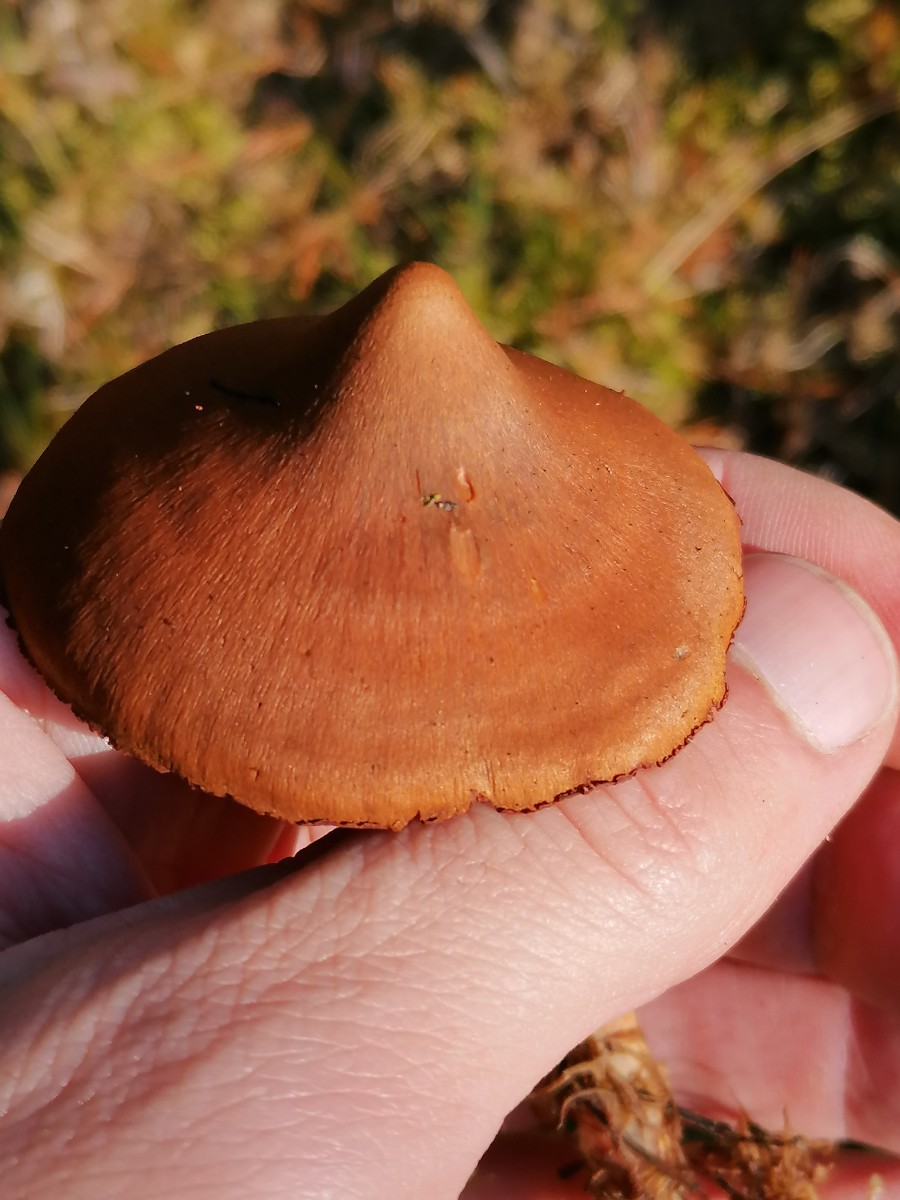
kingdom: Fungi
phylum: Basidiomycota
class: Agaricomycetes
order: Agaricales
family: Cortinariaceae
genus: Cortinarius
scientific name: Cortinarius
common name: cinnoberbladet slørhat
